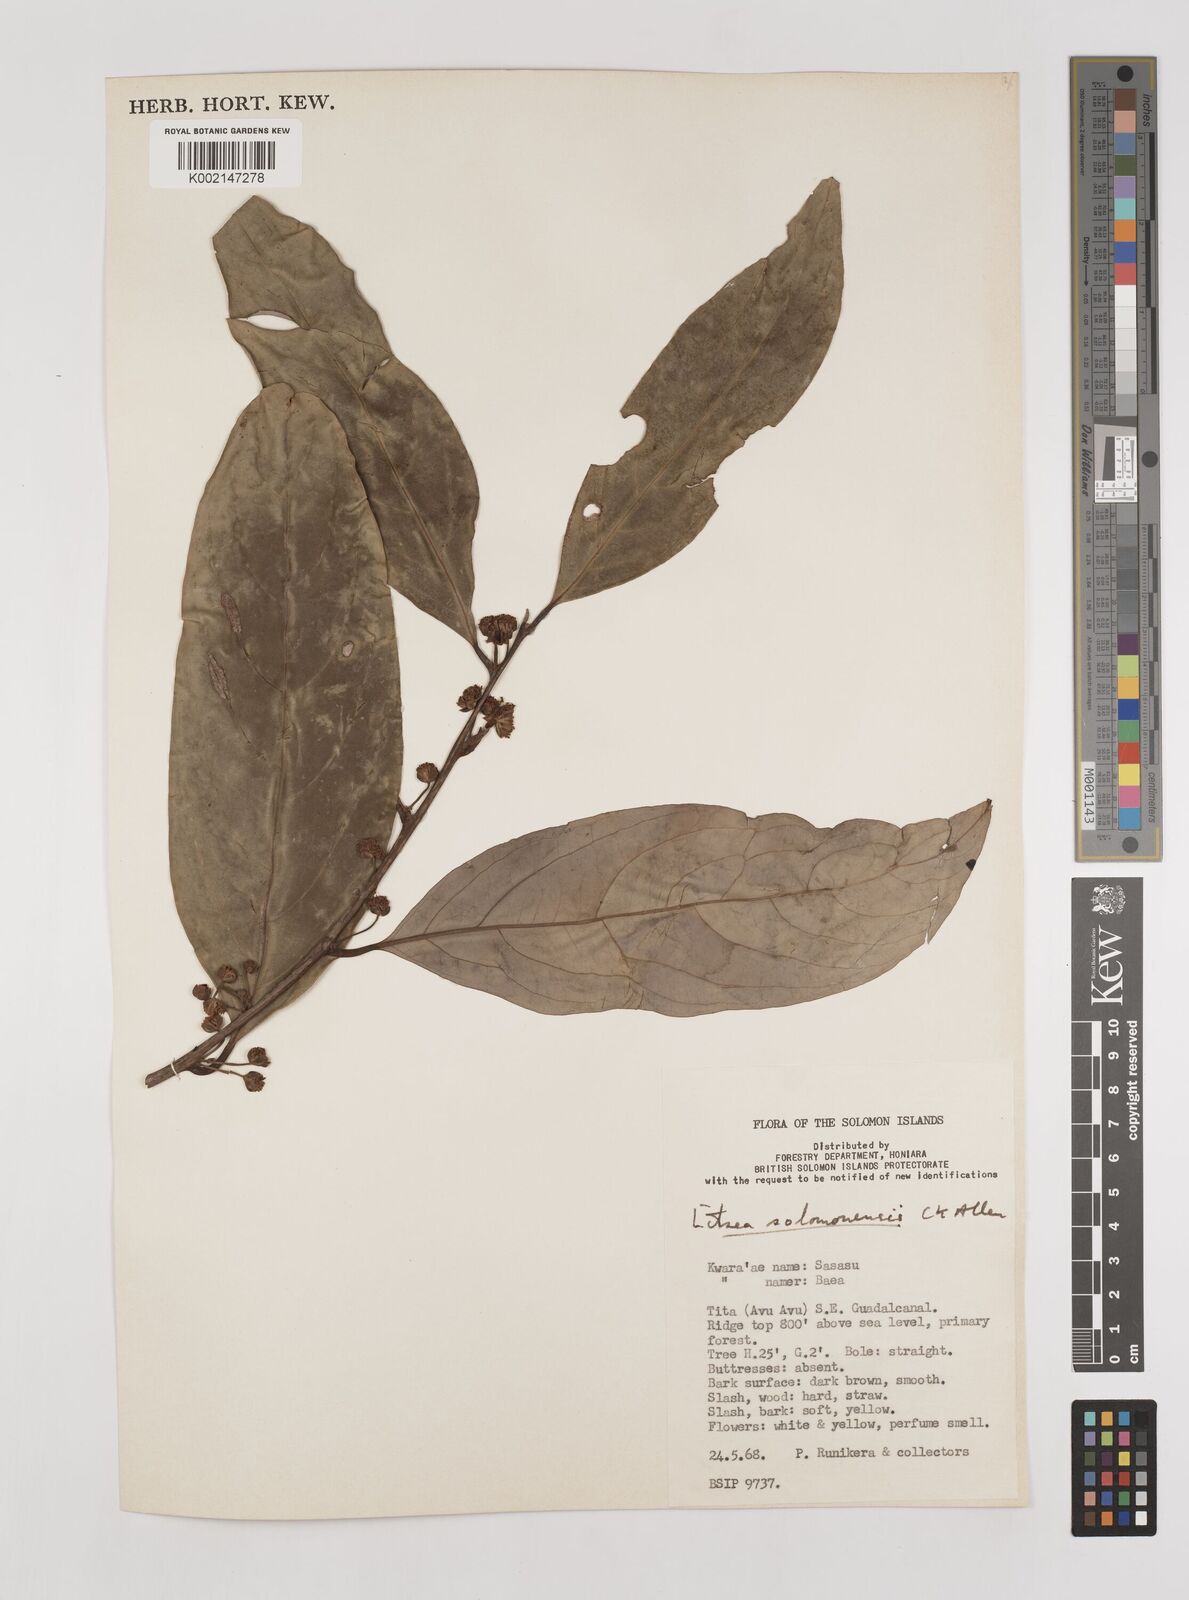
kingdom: Plantae
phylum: Tracheophyta
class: Magnoliopsida
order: Laurales
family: Lauraceae
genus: Litsea
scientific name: Litsea timoriana
